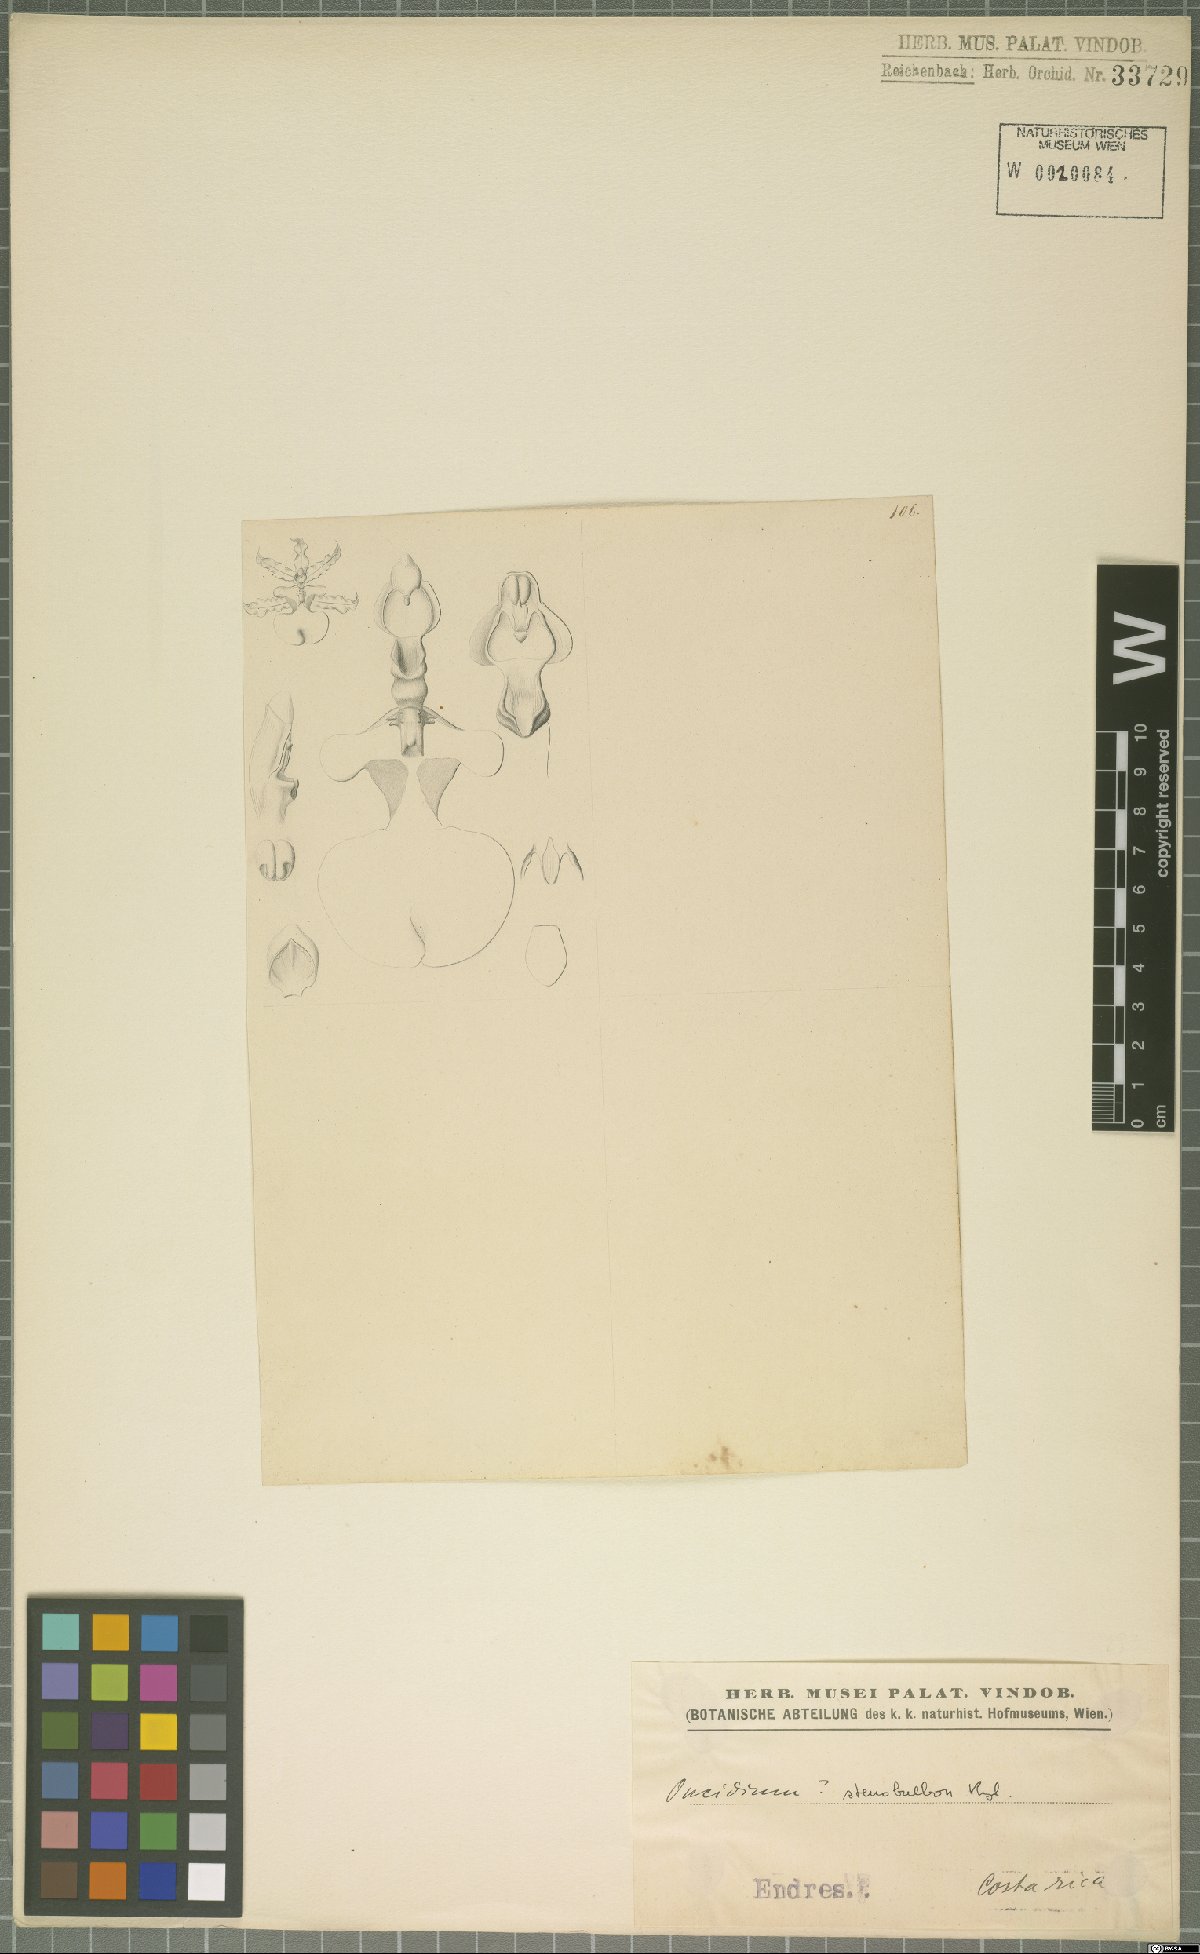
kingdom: Plantae
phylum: Tracheophyta
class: Liliopsida
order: Asparagales
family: Orchidaceae
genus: Oncidium
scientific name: Oncidium stenobulbon
